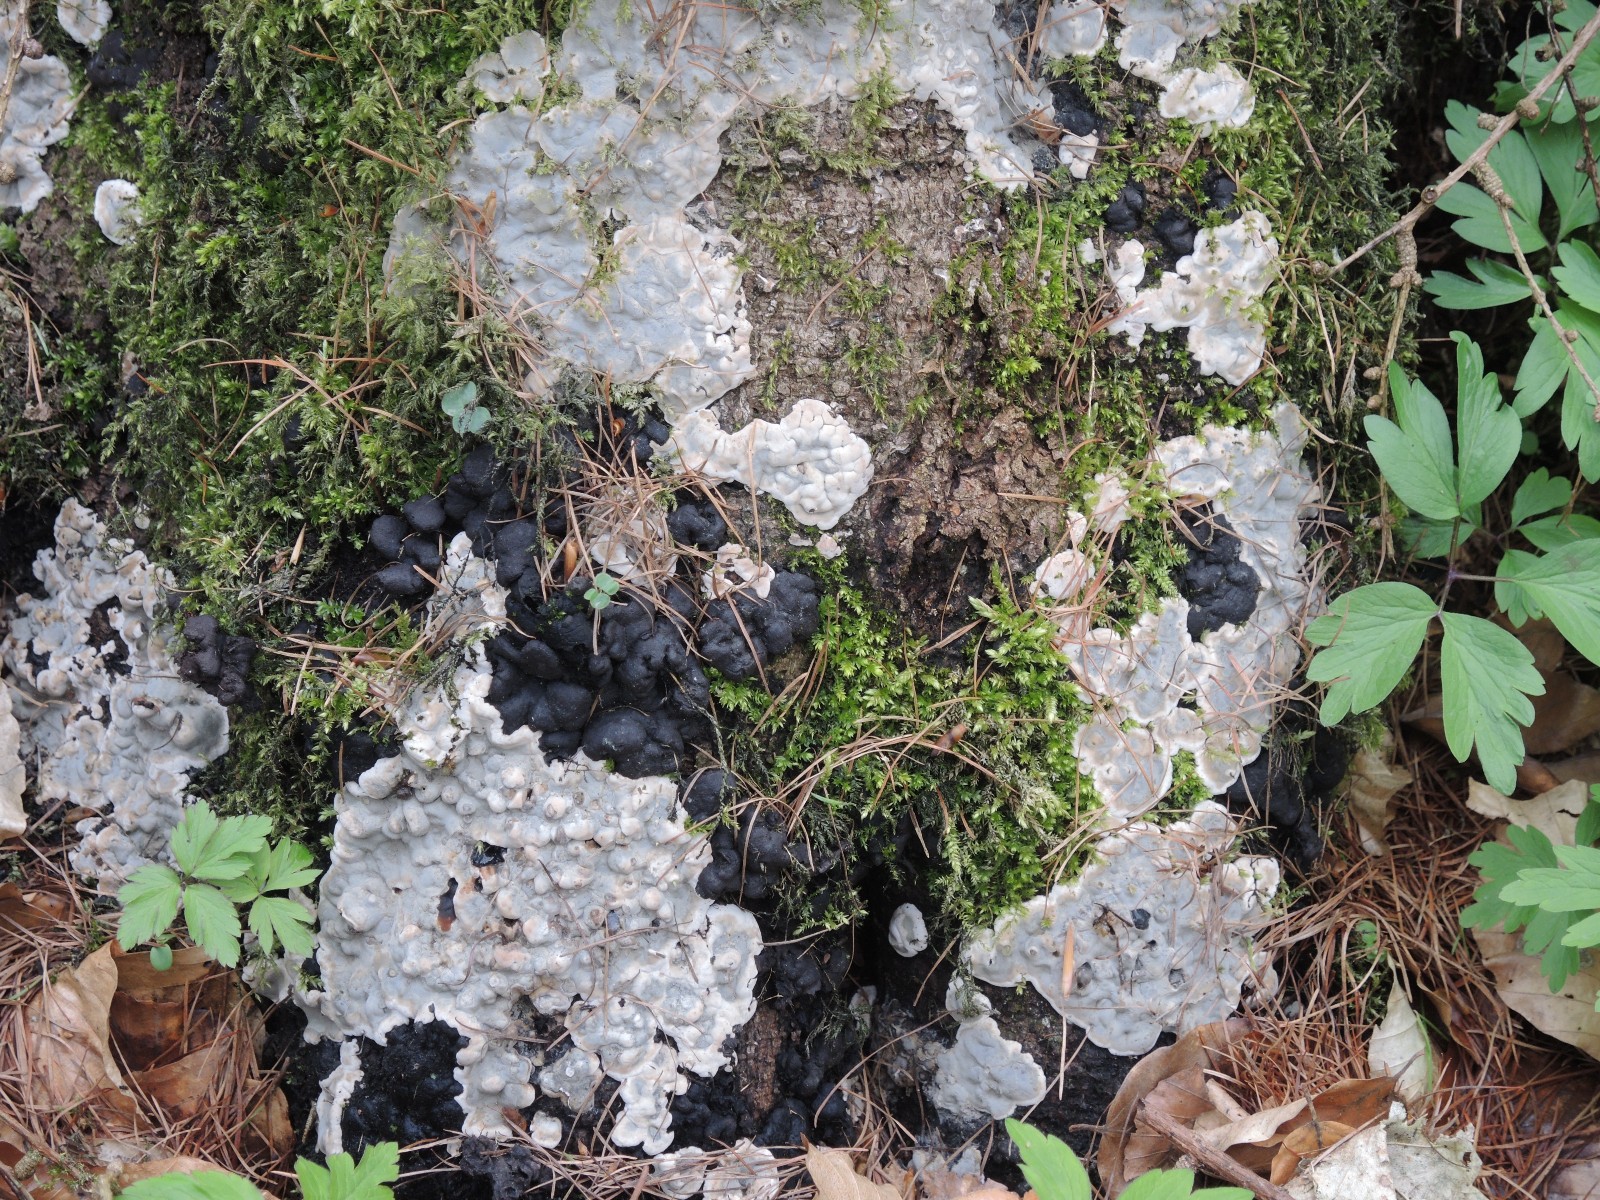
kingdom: Fungi
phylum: Ascomycota
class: Sordariomycetes
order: Xylariales
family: Xylariaceae
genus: Kretzschmaria
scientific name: Kretzschmaria deusta
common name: stor kulsvamp
